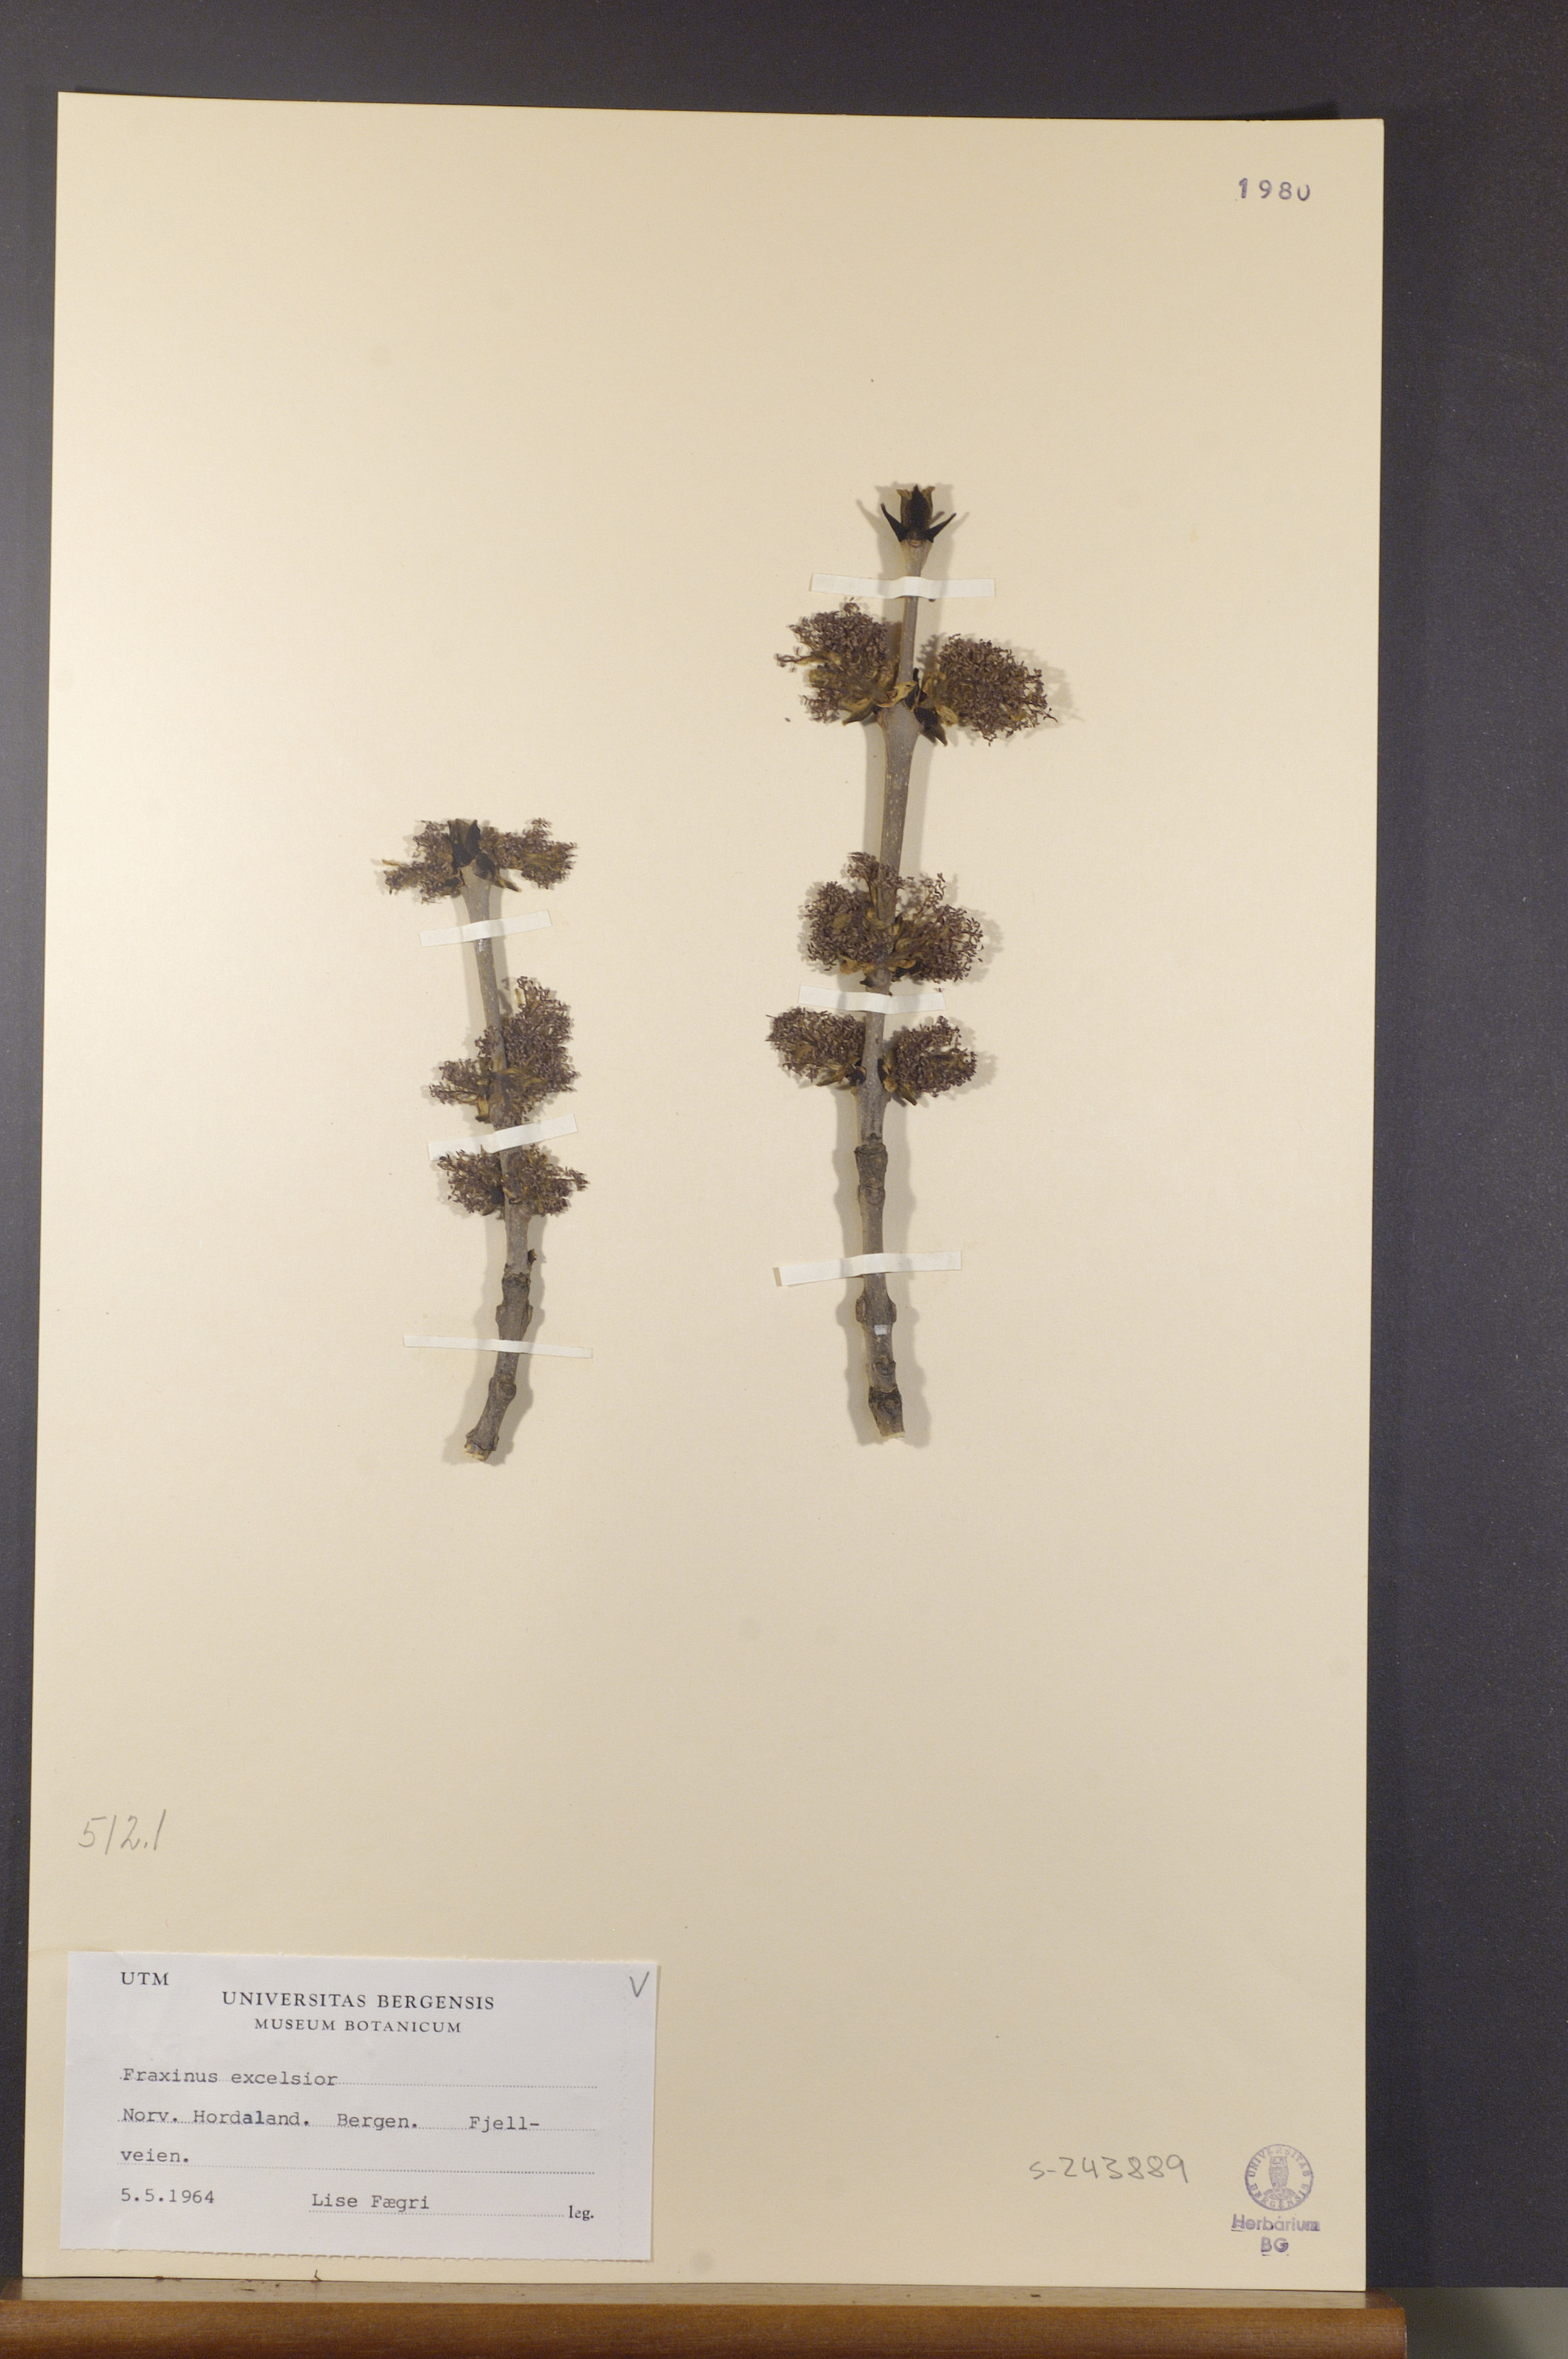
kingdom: Plantae
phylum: Tracheophyta
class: Magnoliopsida
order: Lamiales
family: Oleaceae
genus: Fraxinus
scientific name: Fraxinus excelsior
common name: European ash
